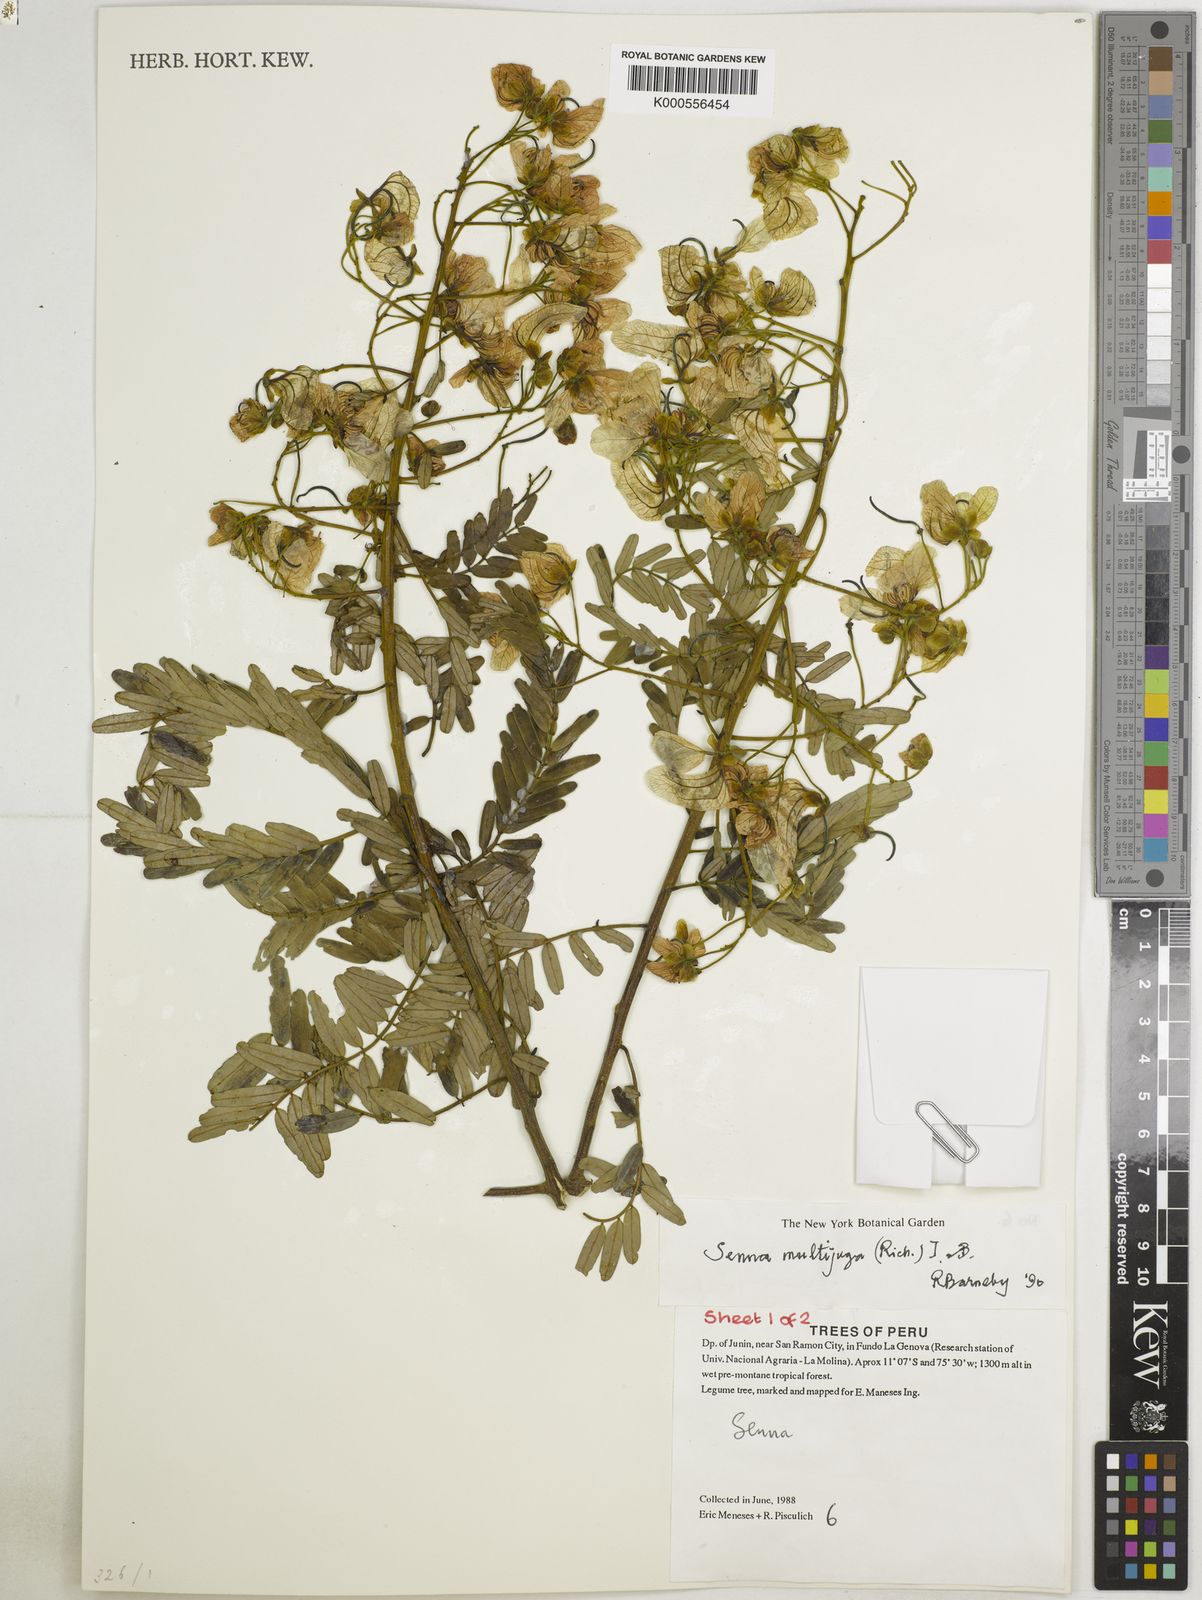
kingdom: Plantae
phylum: Tracheophyta
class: Magnoliopsida
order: Fabales
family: Fabaceae
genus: Senna
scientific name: Senna multijuga
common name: False sicklepod
